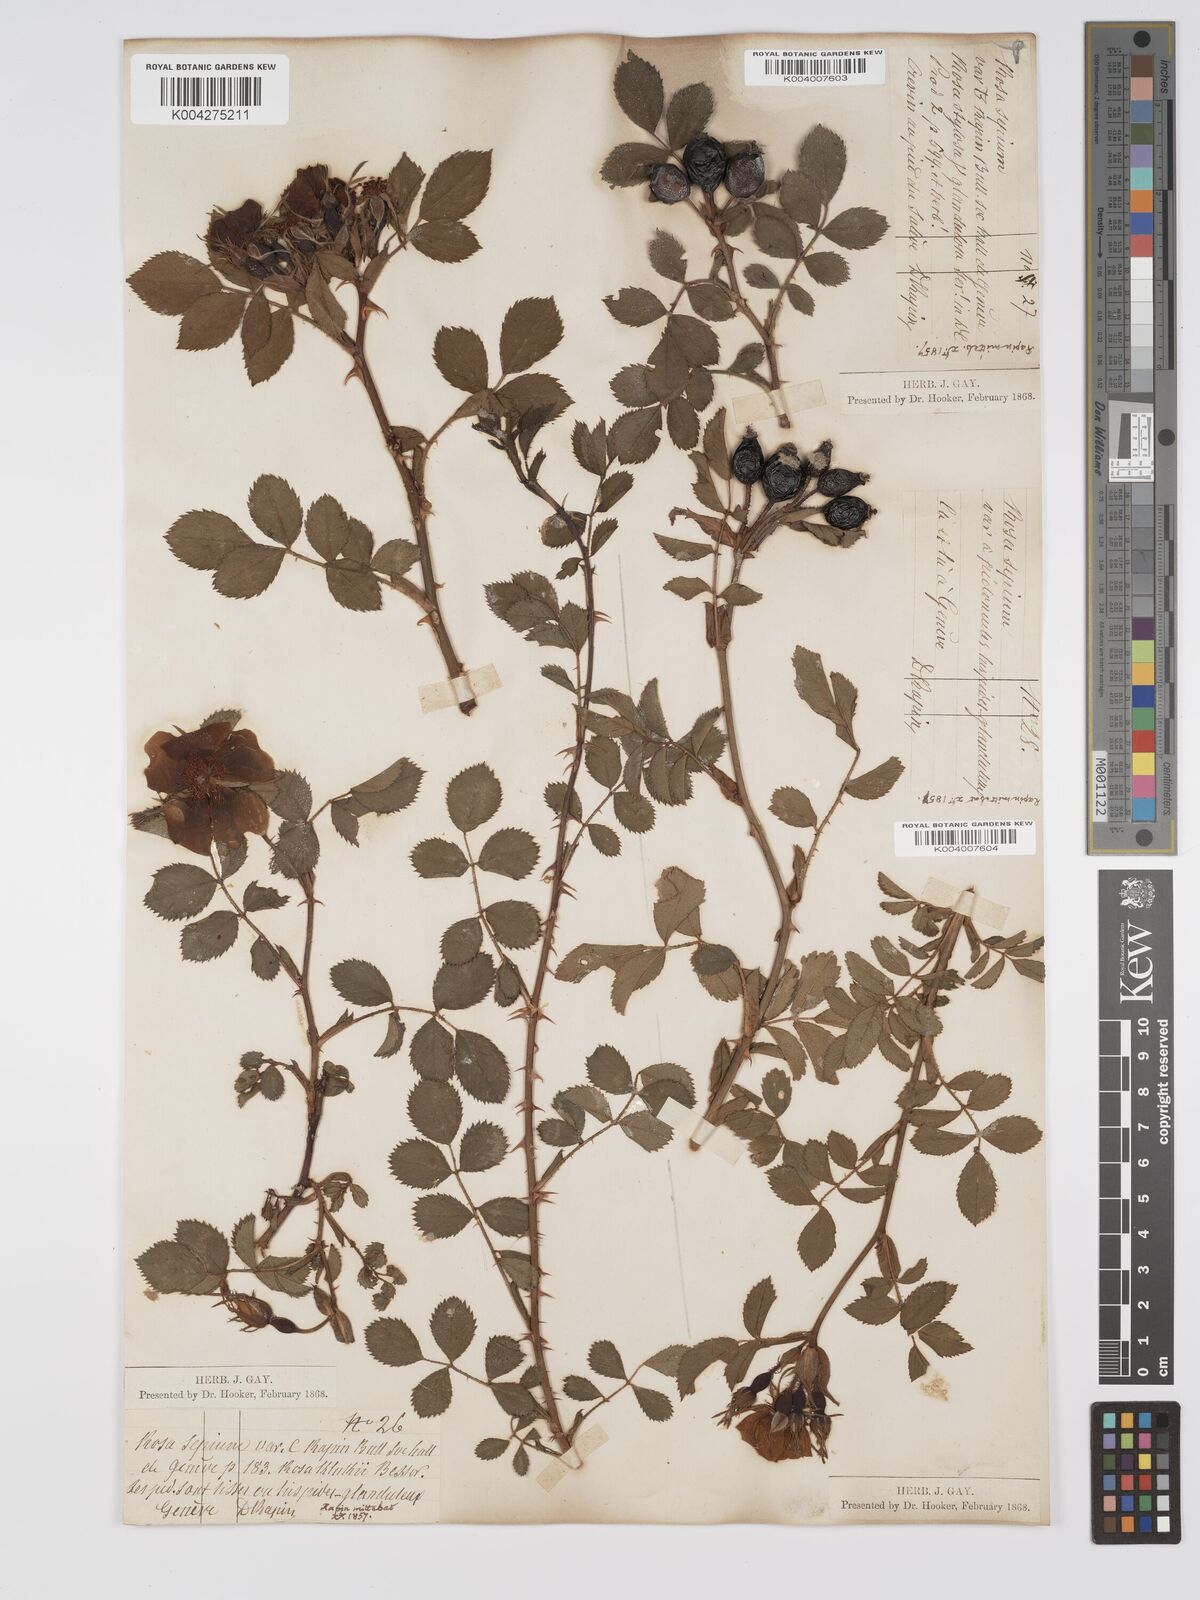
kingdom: Plantae
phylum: Tracheophyta
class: Magnoliopsida
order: Rosales
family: Rosaceae
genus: Rosa
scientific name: Rosa
